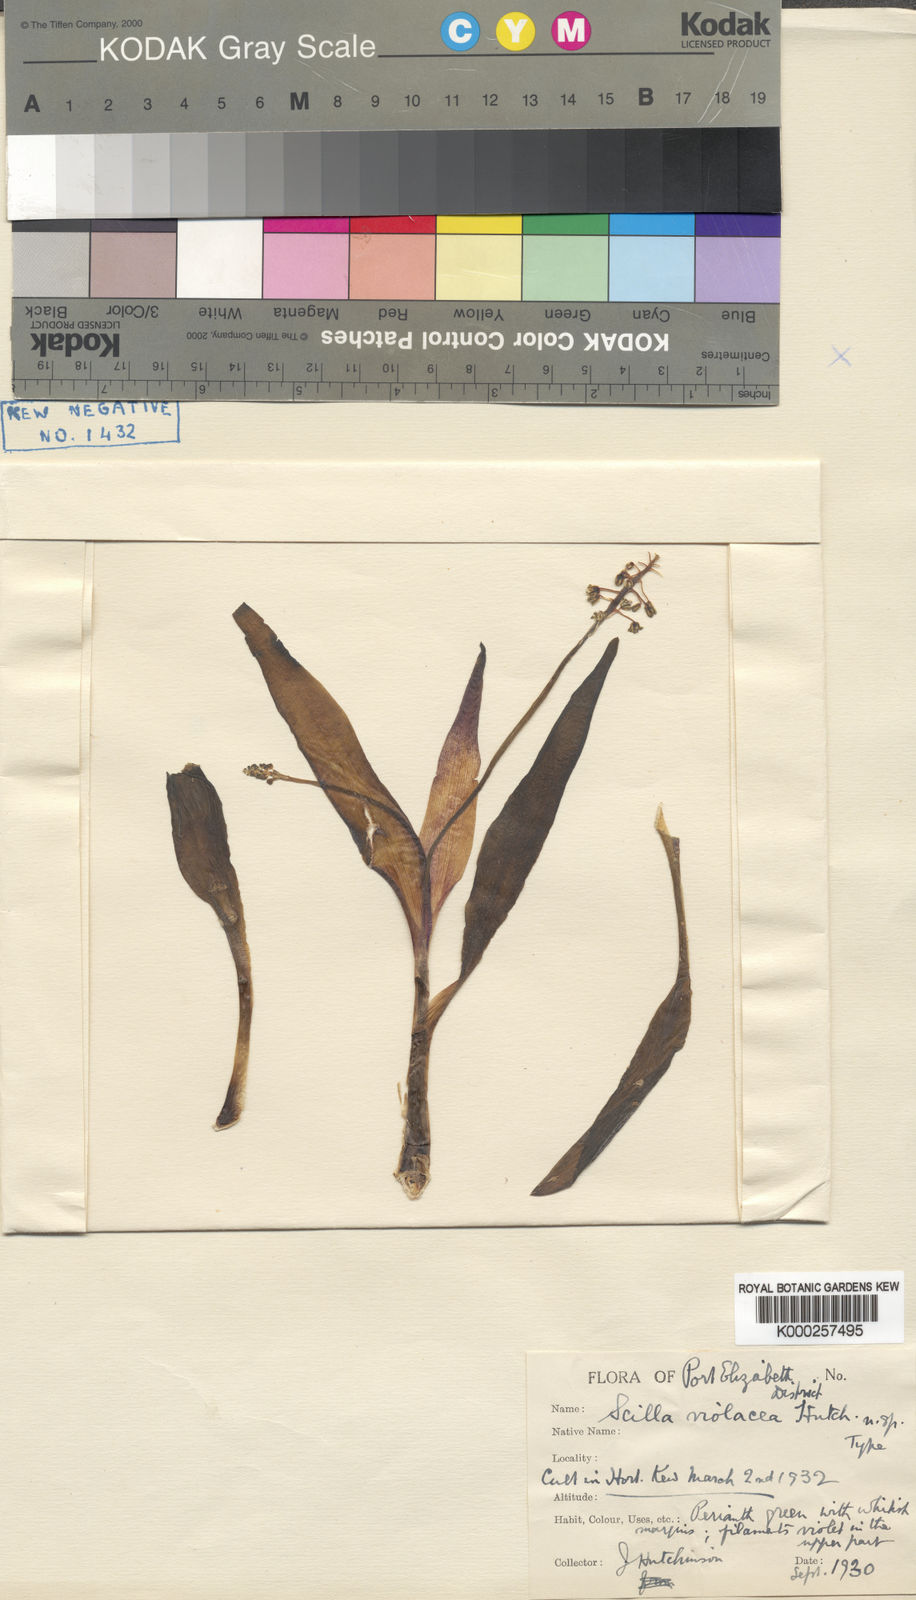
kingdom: Plantae
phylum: Tracheophyta
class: Liliopsida
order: Asparagales
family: Asparagaceae
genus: Ledebouria
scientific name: Ledebouria socialis
